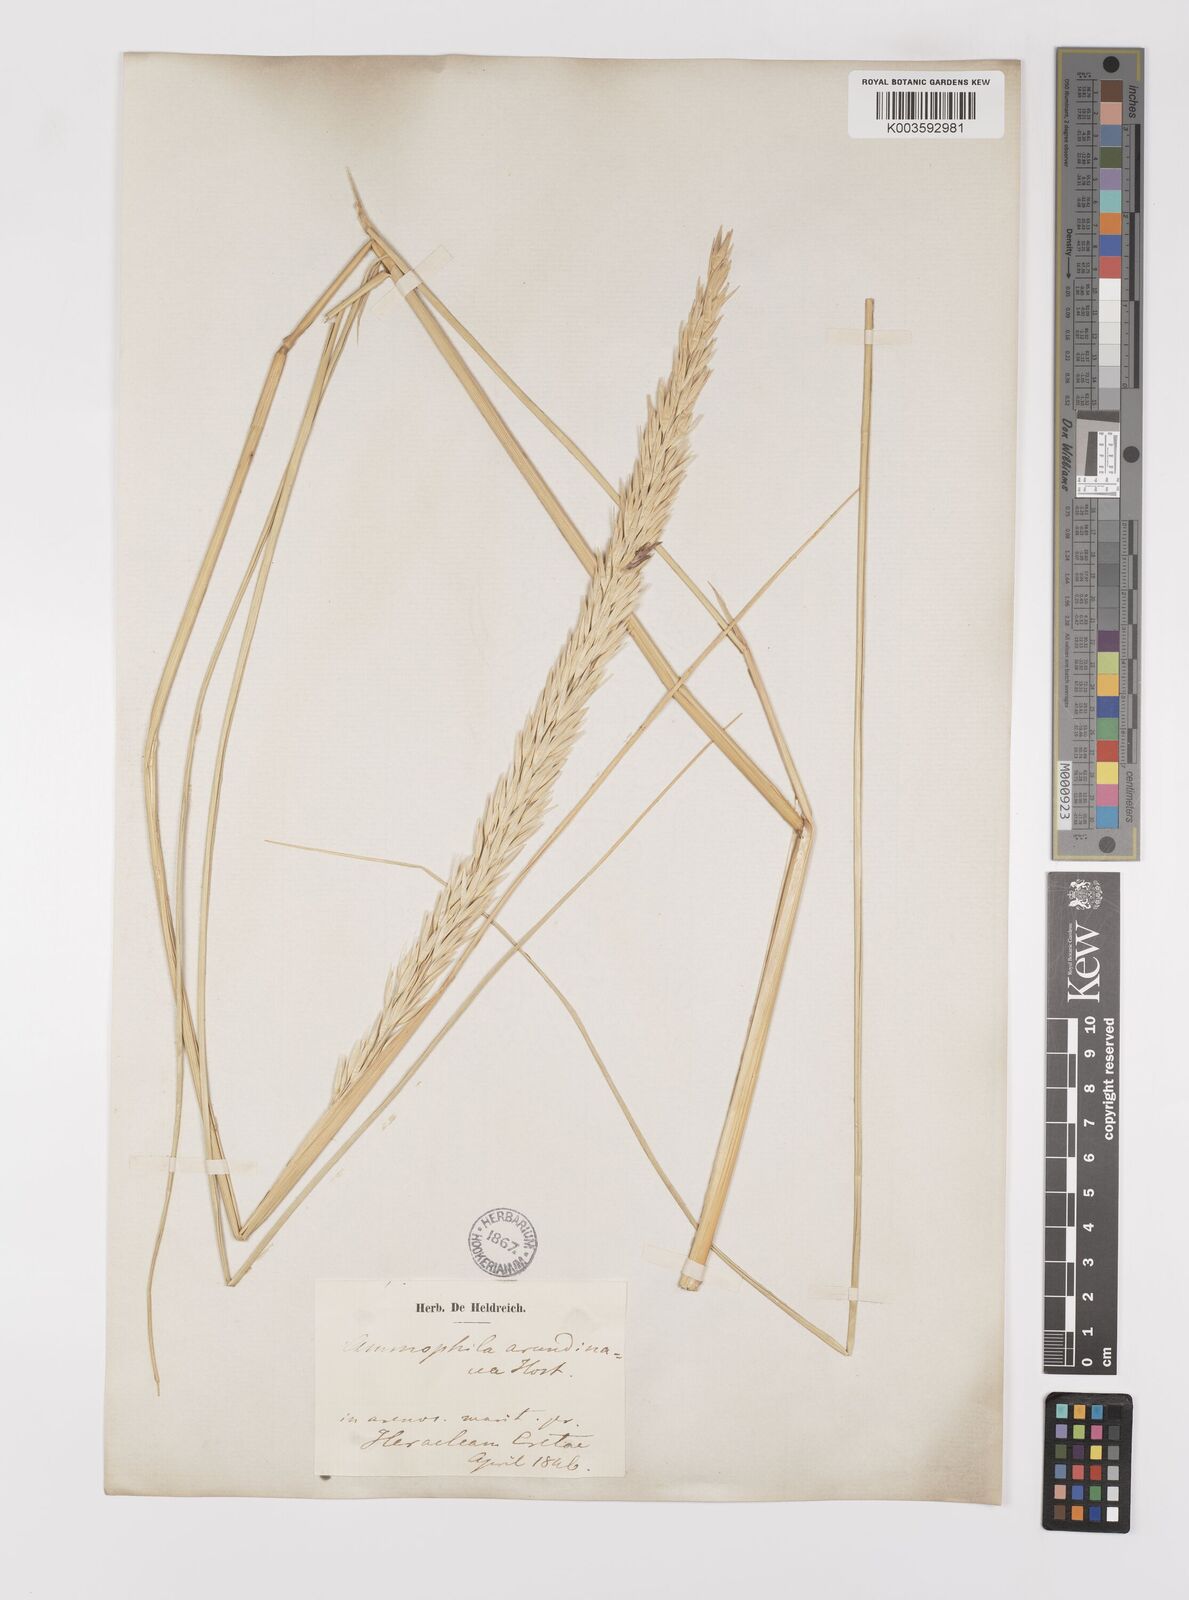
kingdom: Plantae
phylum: Tracheophyta
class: Liliopsida
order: Poales
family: Poaceae
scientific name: Poaceae
